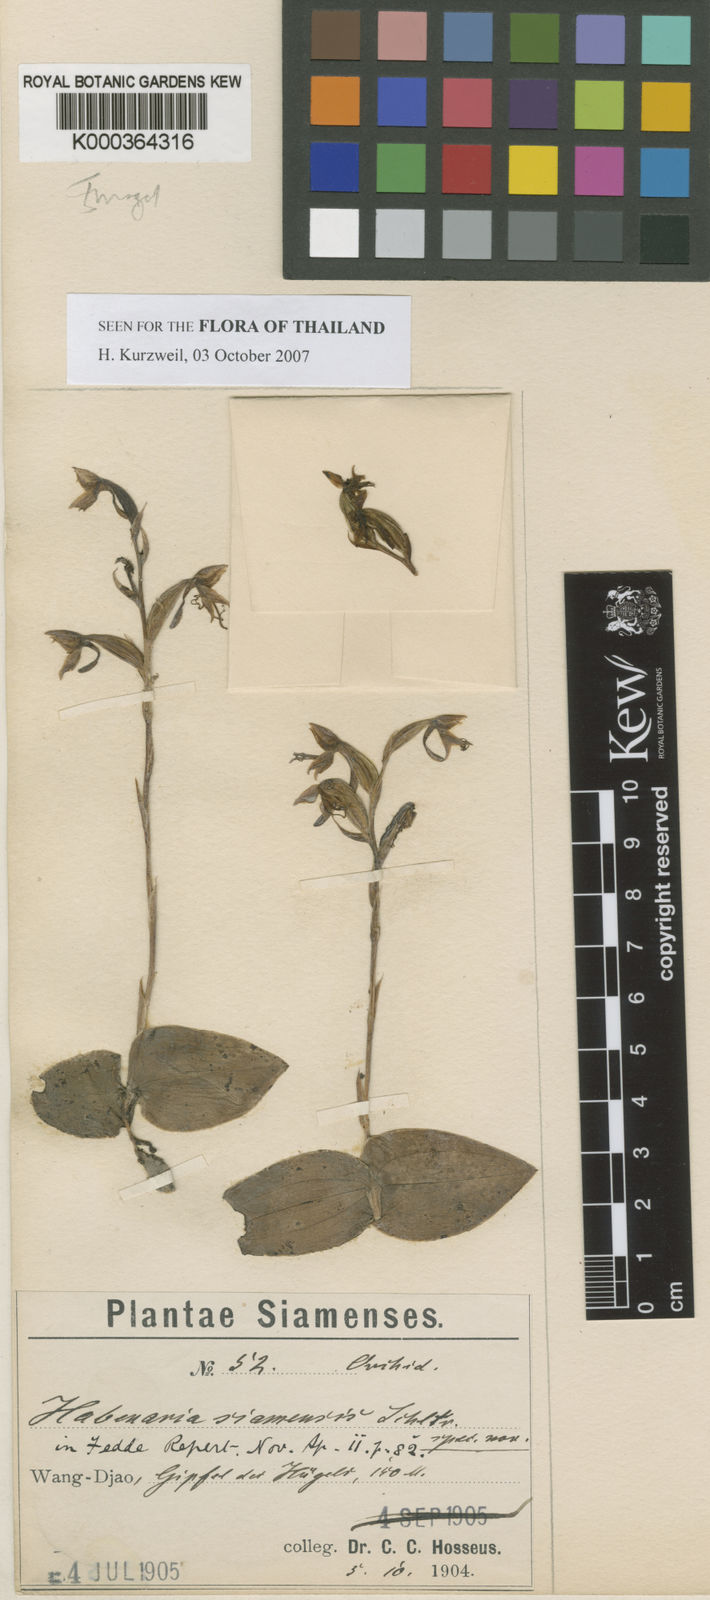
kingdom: Plantae
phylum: Tracheophyta
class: Liliopsida
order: Asparagales
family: Orchidaceae
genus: Habenaria
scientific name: Habenaria siamensis
